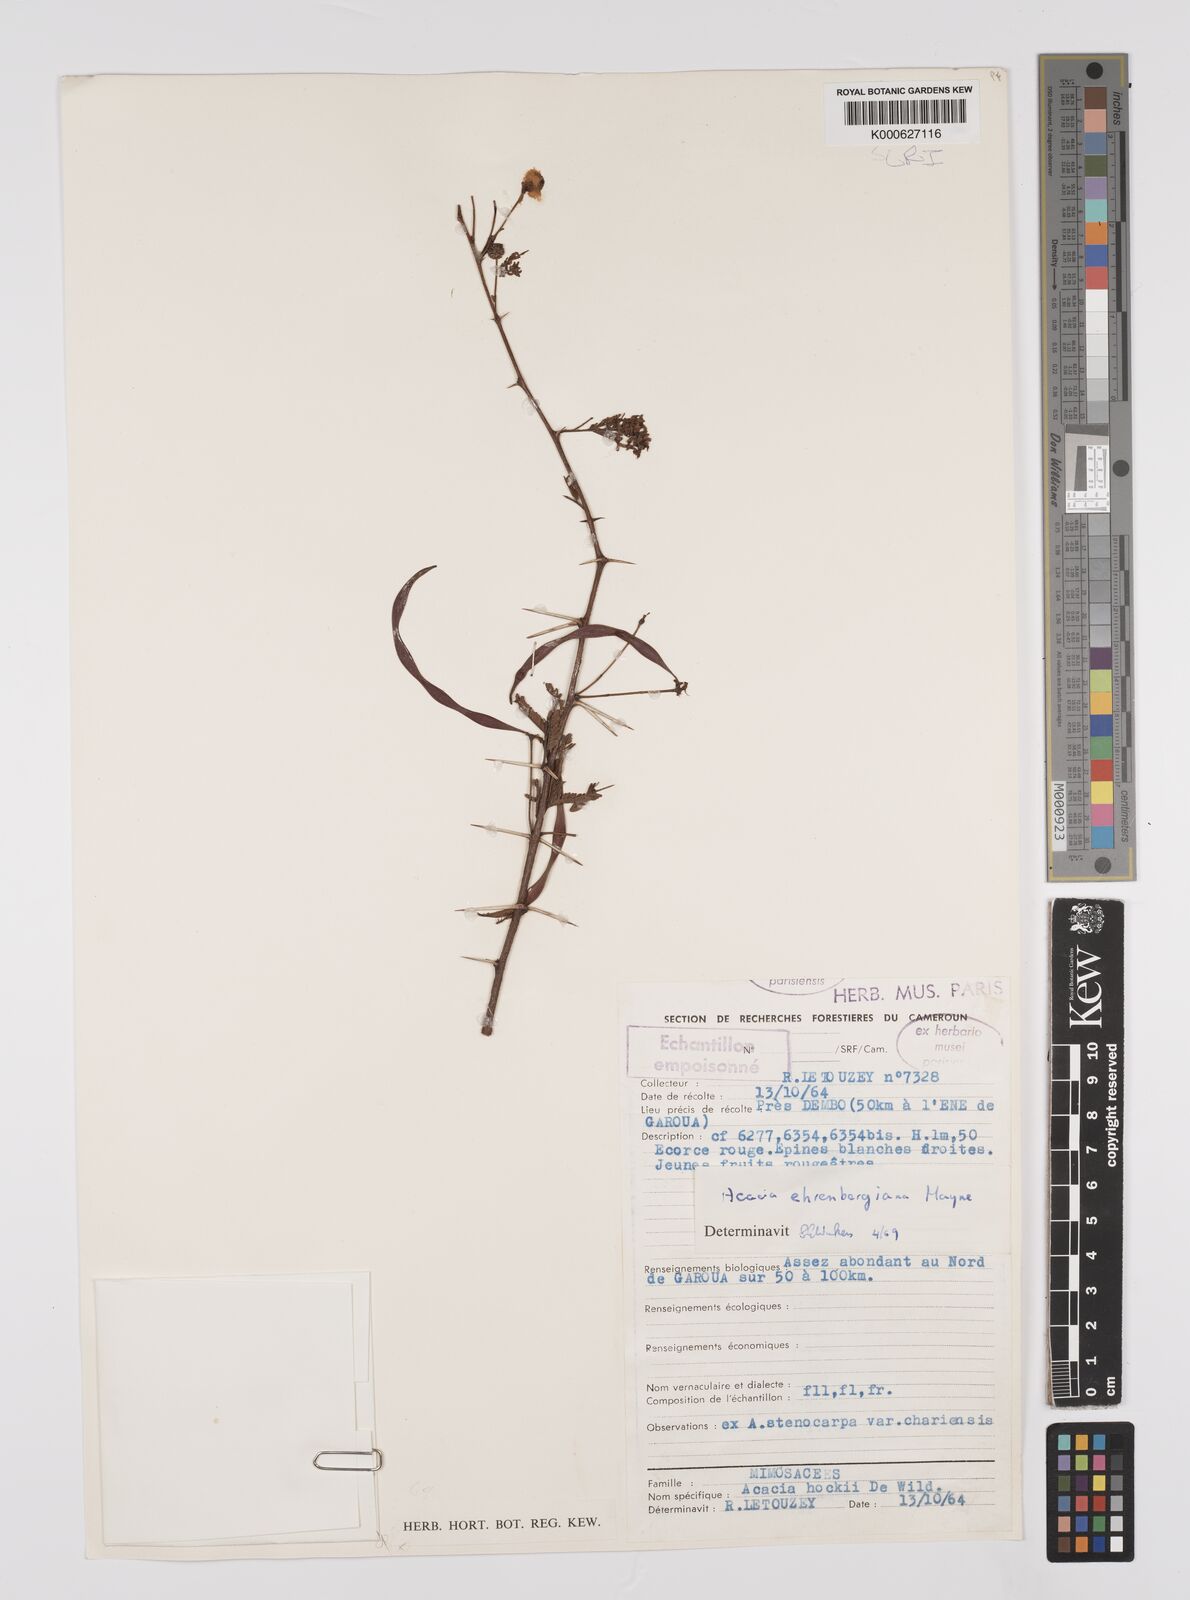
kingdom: Plantae
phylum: Tracheophyta
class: Magnoliopsida
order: Fabales
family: Fabaceae
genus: Vachellia
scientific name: Vachellia flava
